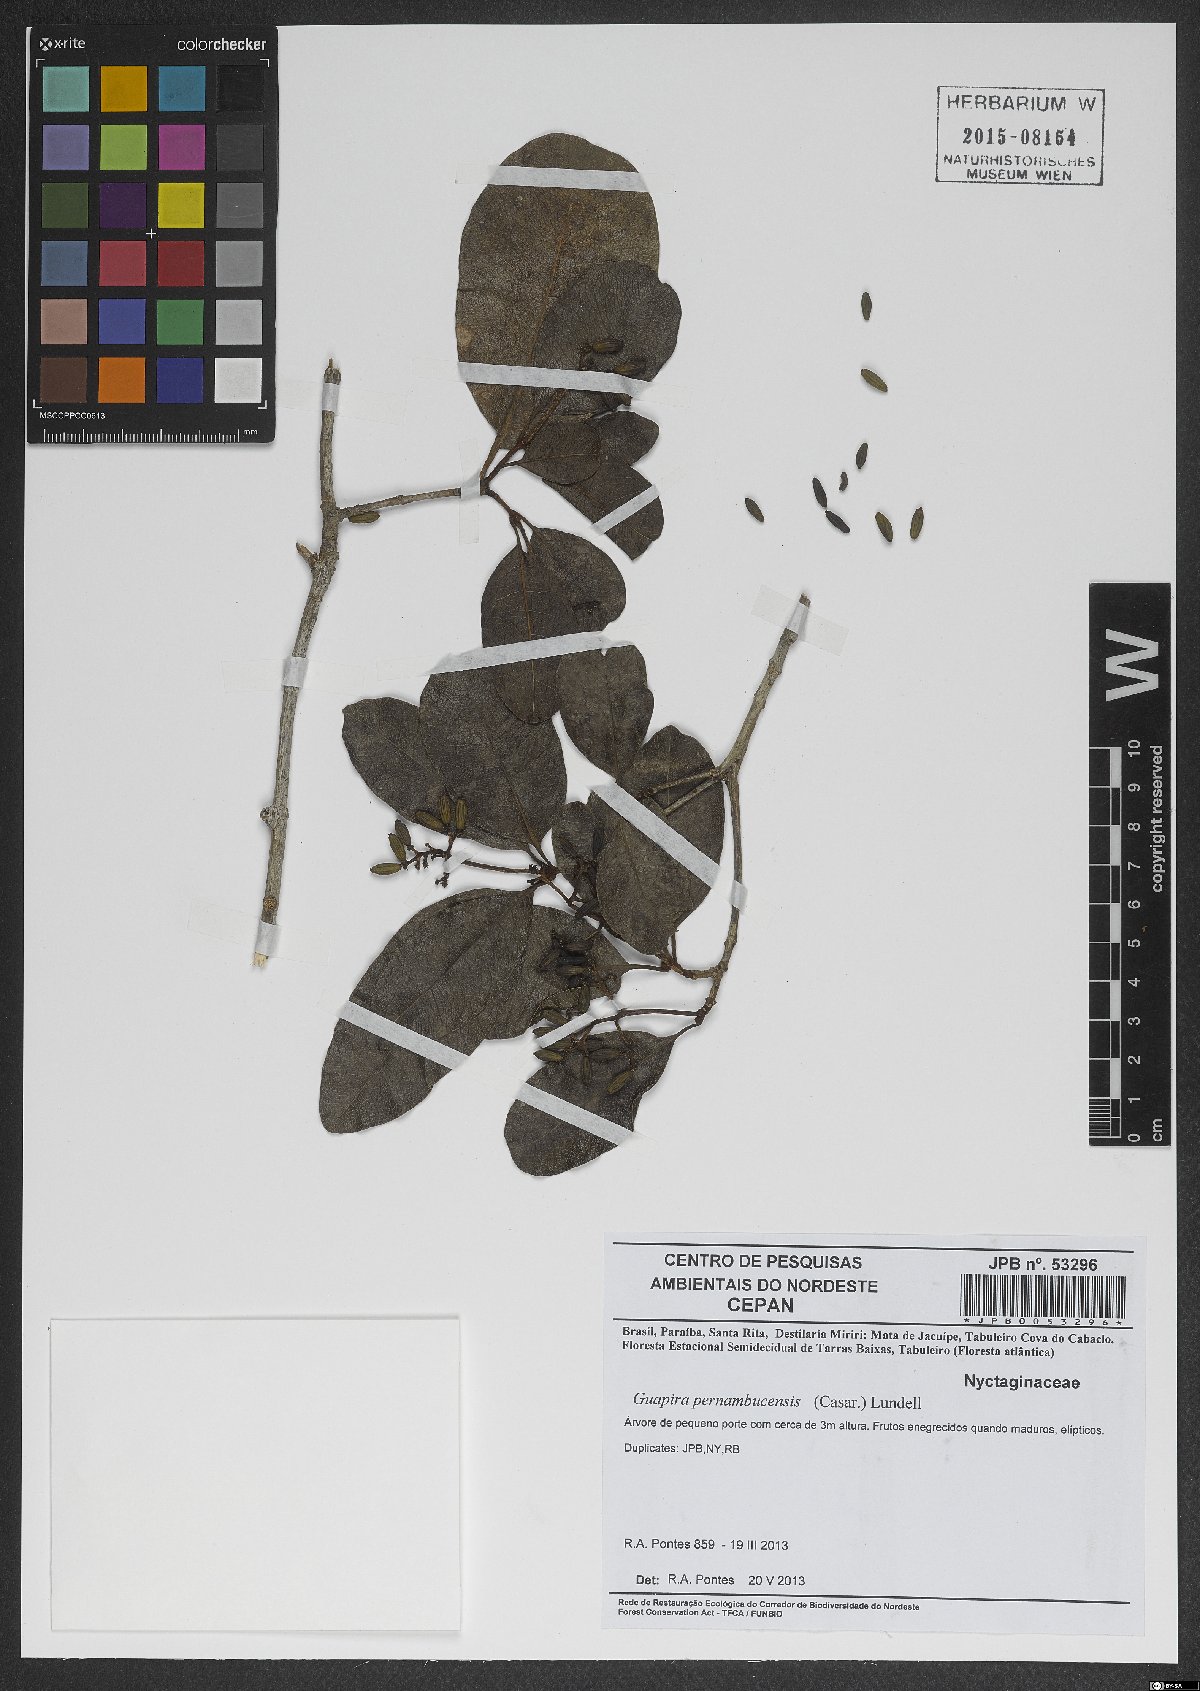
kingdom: Plantae
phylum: Tracheophyta
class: Magnoliopsida
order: Caryophyllales
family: Nyctaginaceae
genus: Guapira
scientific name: Guapira pernambucensis
